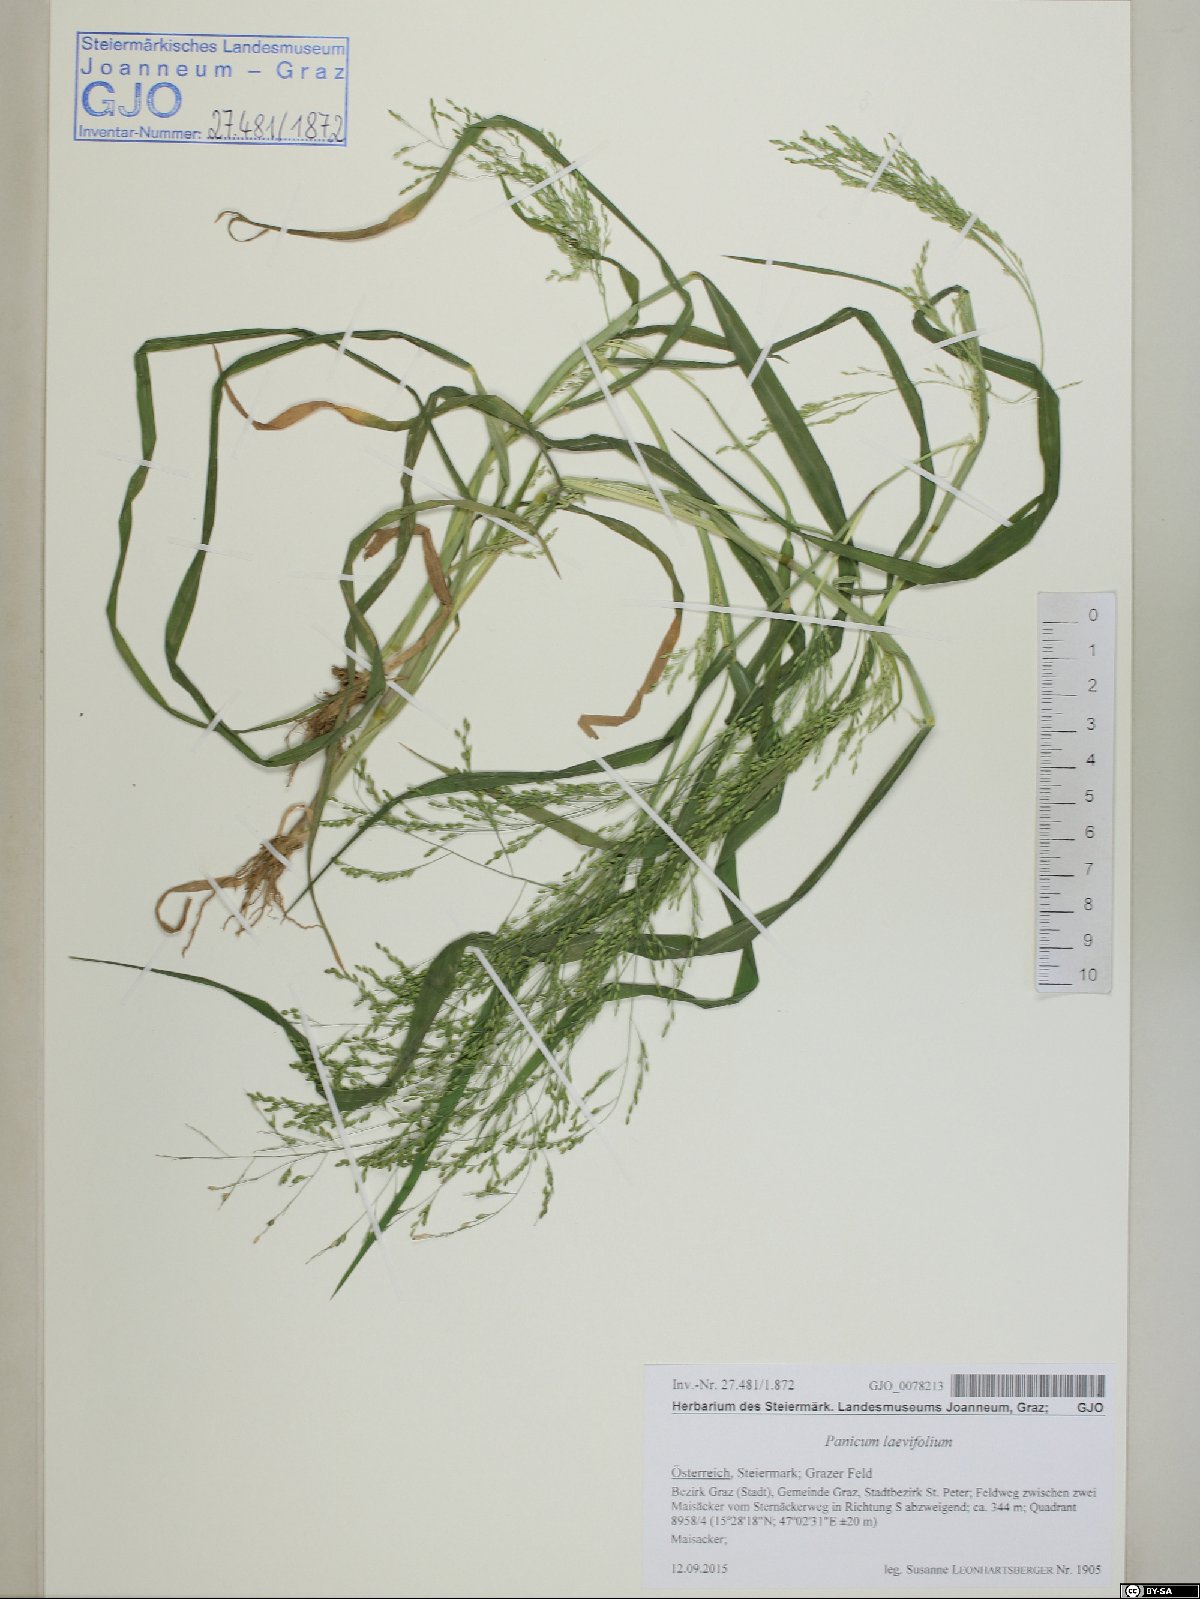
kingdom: Plantae
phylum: Tracheophyta
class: Liliopsida
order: Poales
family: Poaceae
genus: Panicum
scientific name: Panicum schinzii
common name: Sweet grass
